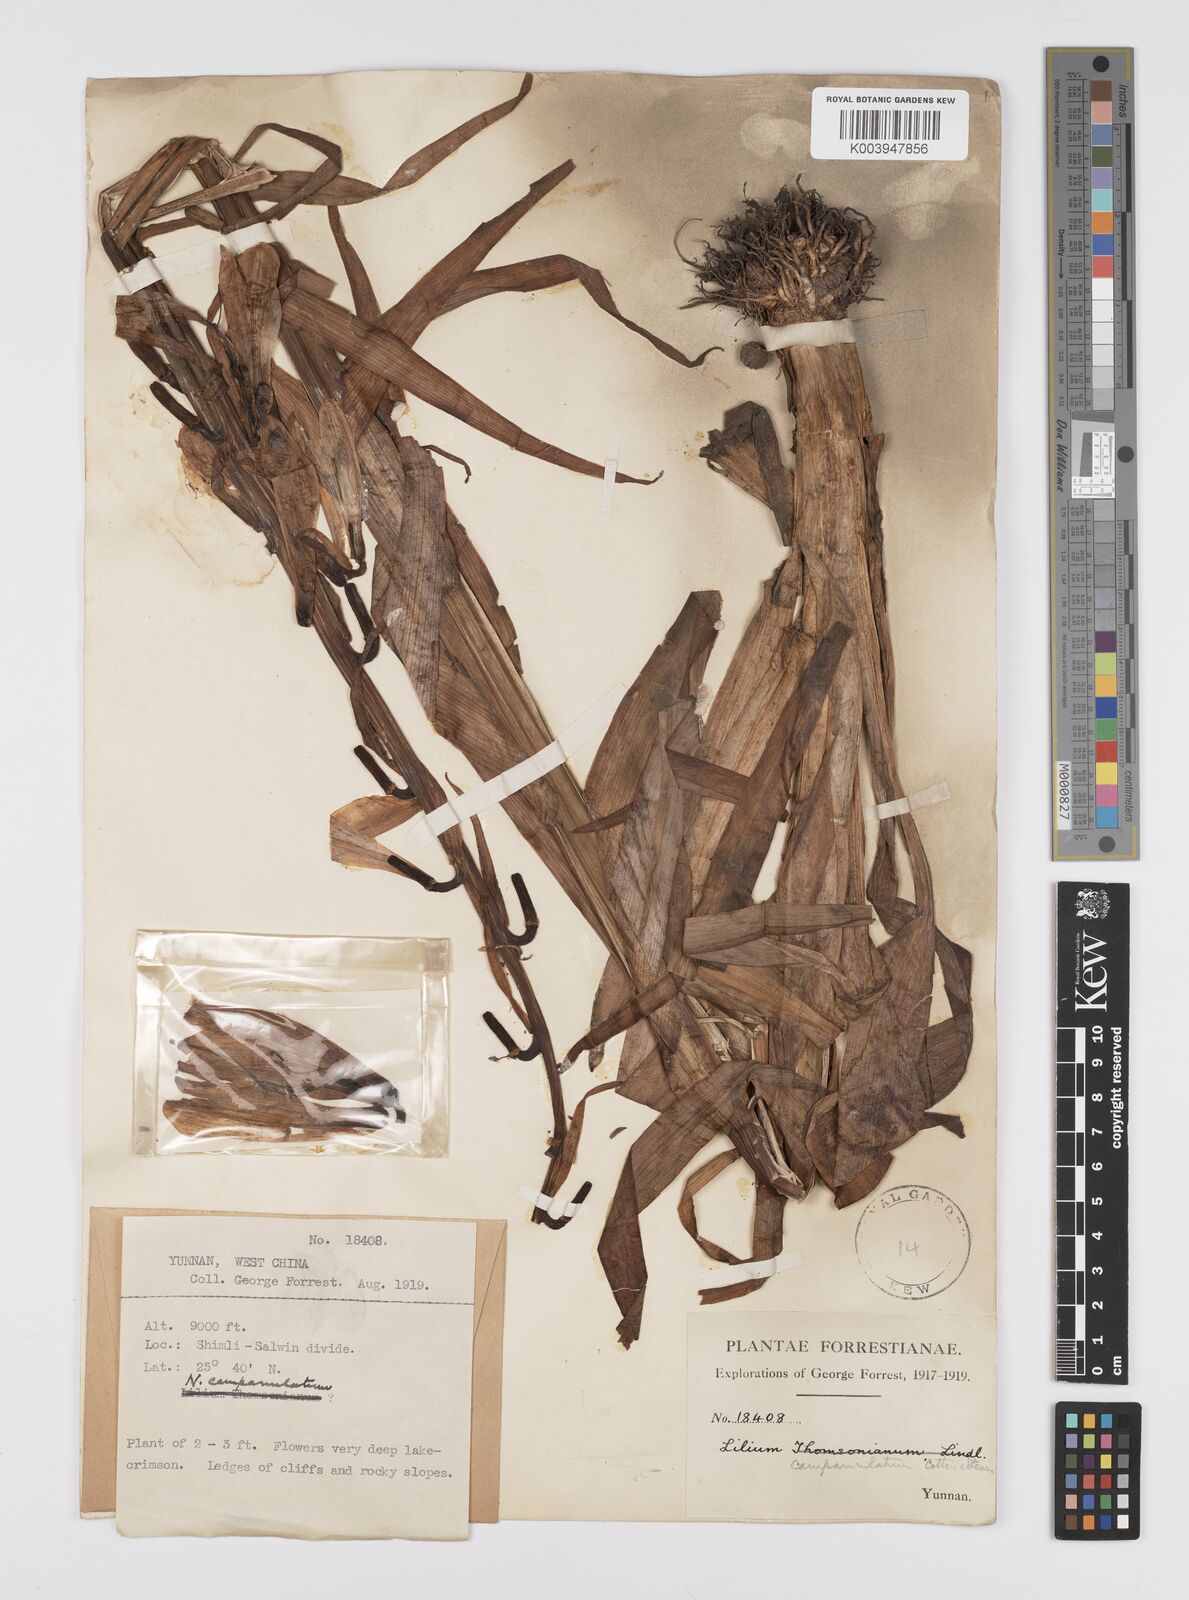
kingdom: Plantae
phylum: Tracheophyta
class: Liliopsida
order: Liliales
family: Liliaceae
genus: Notholirion
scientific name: Notholirion bulbuliferum
